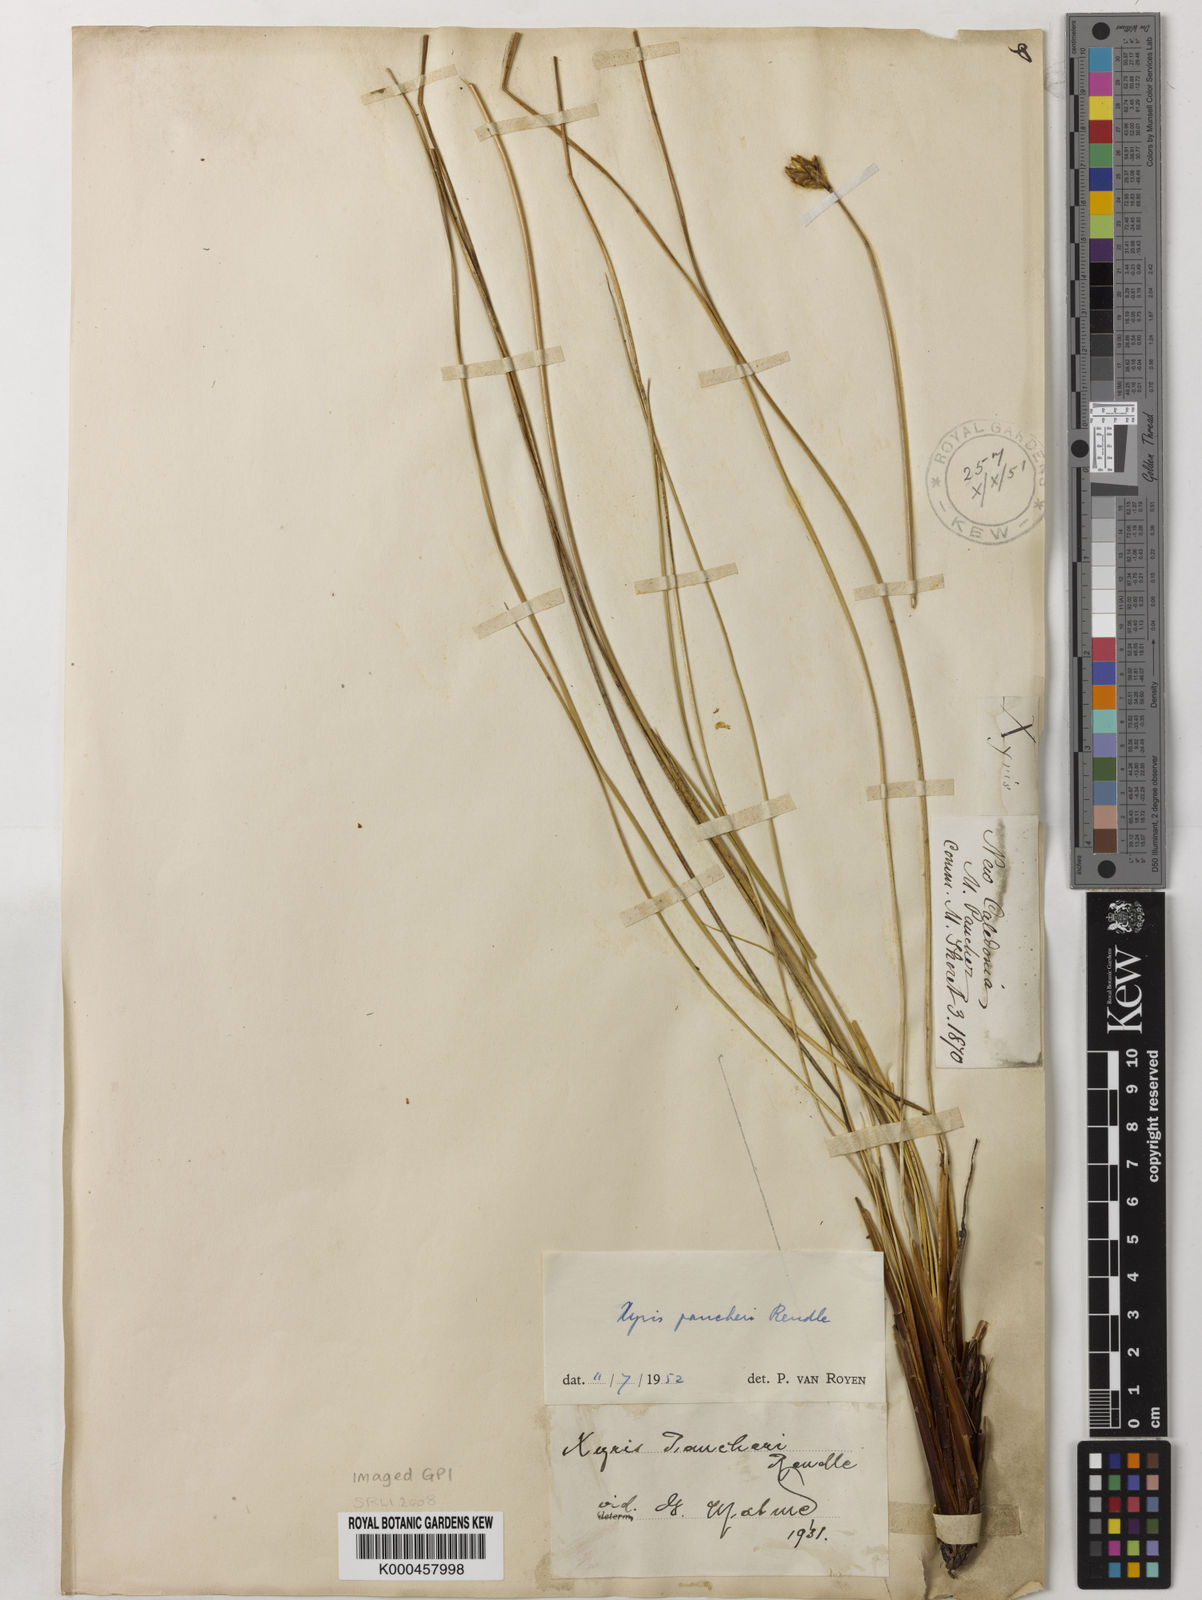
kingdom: Plantae
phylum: Tracheophyta
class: Liliopsida
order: Poales
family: Xyridaceae
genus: Xyris
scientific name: Xyris pancheri
